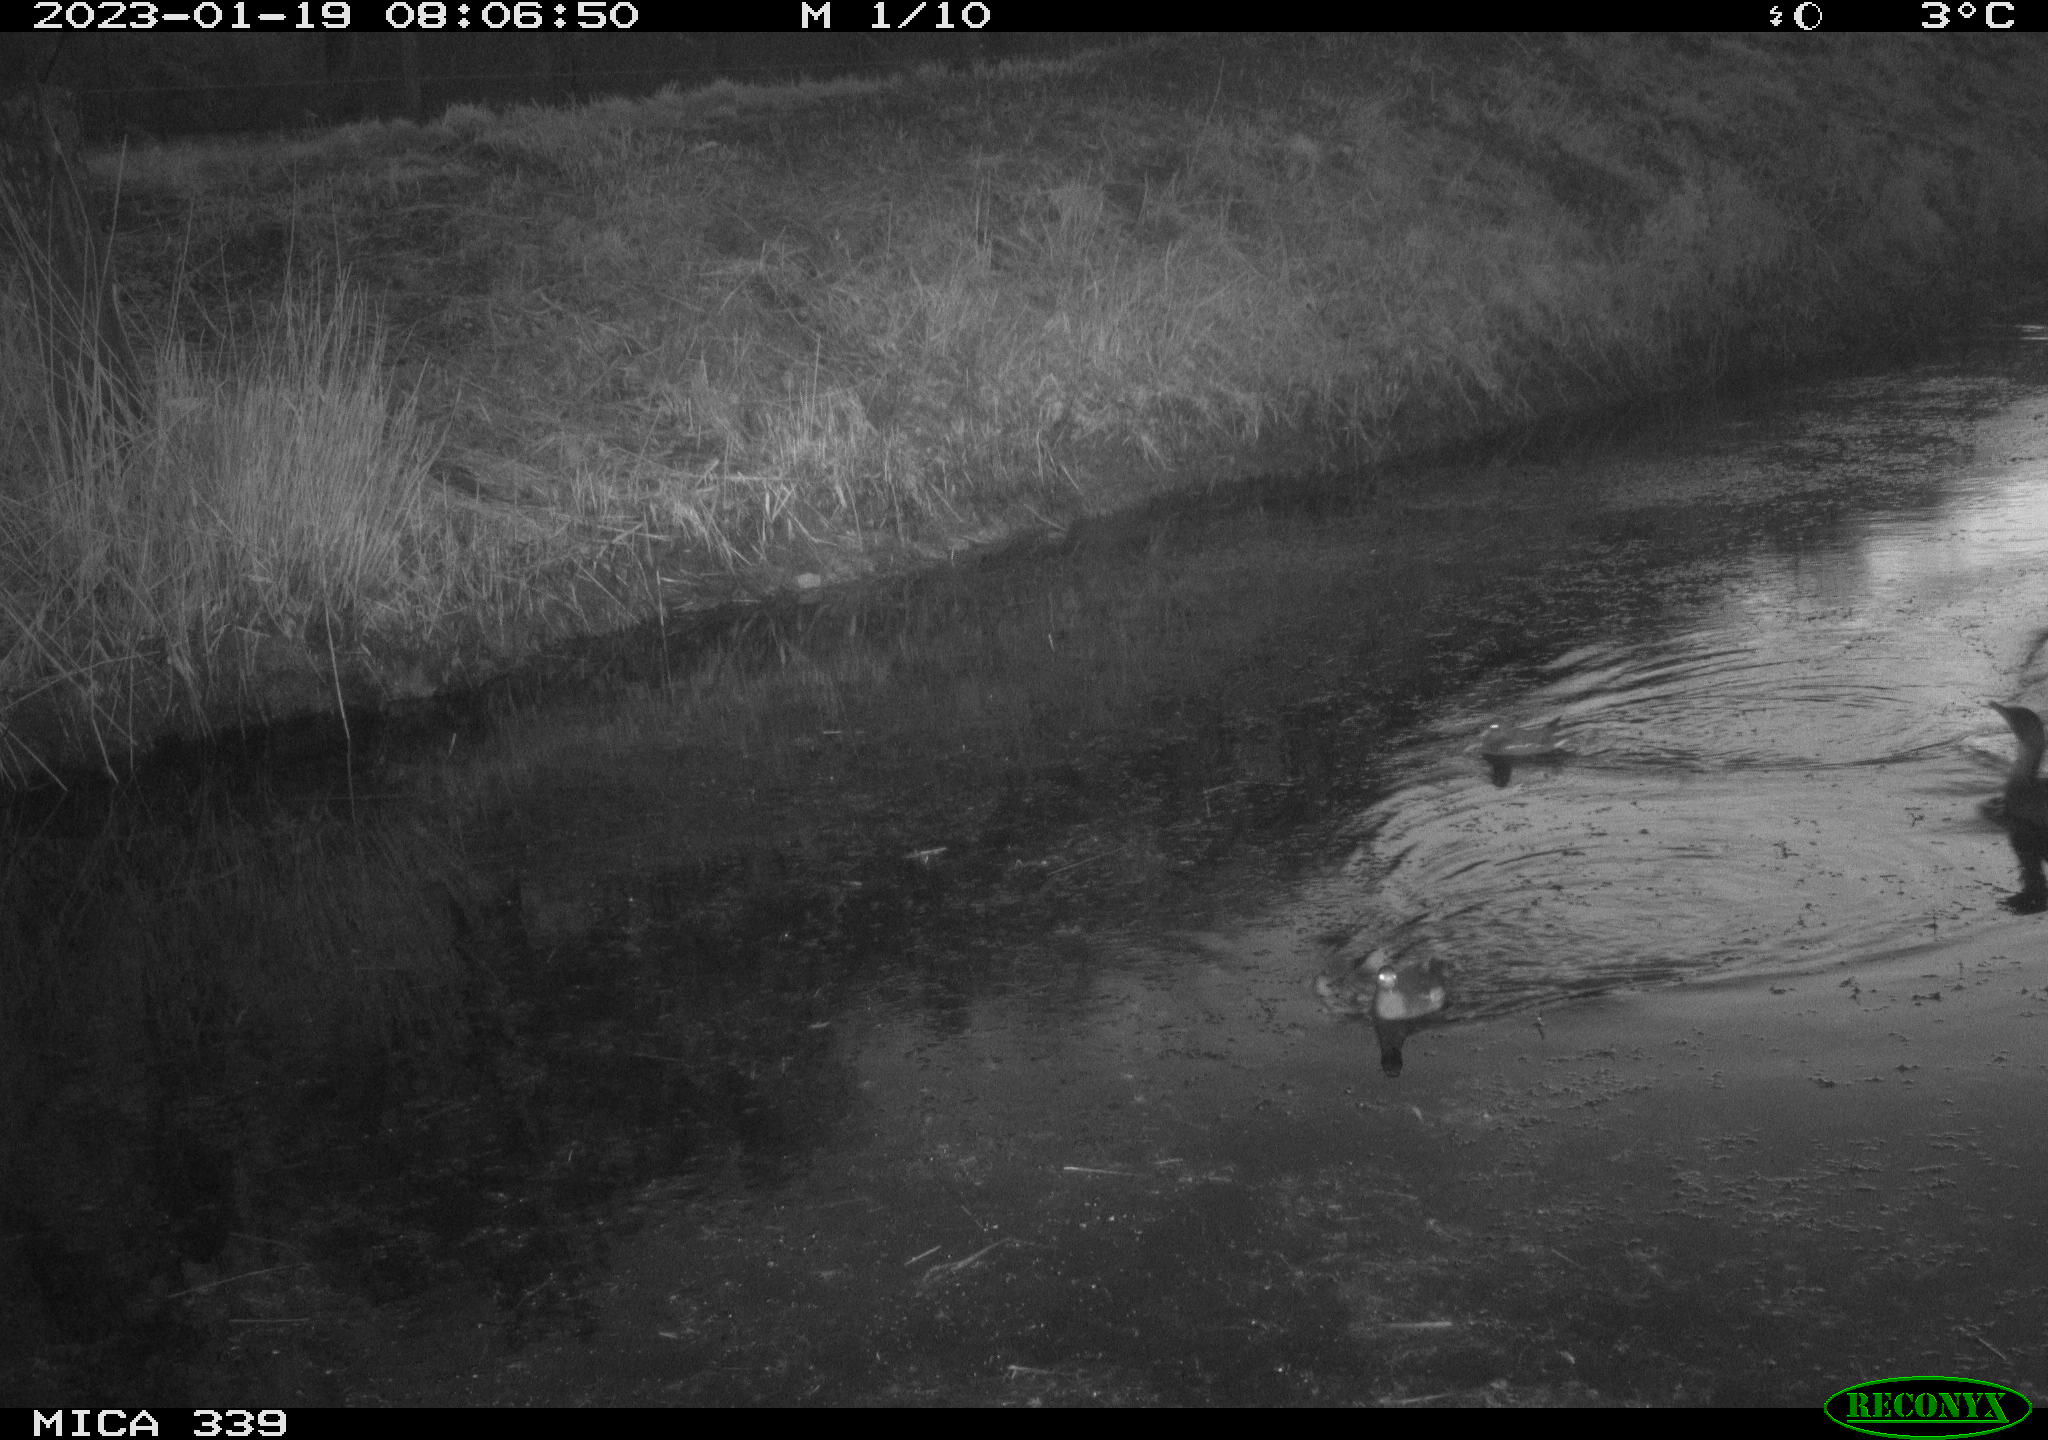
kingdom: Animalia
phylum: Chordata
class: Aves
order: Gruiformes
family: Rallidae
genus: Gallinula
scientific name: Gallinula chloropus
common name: Common moorhen
